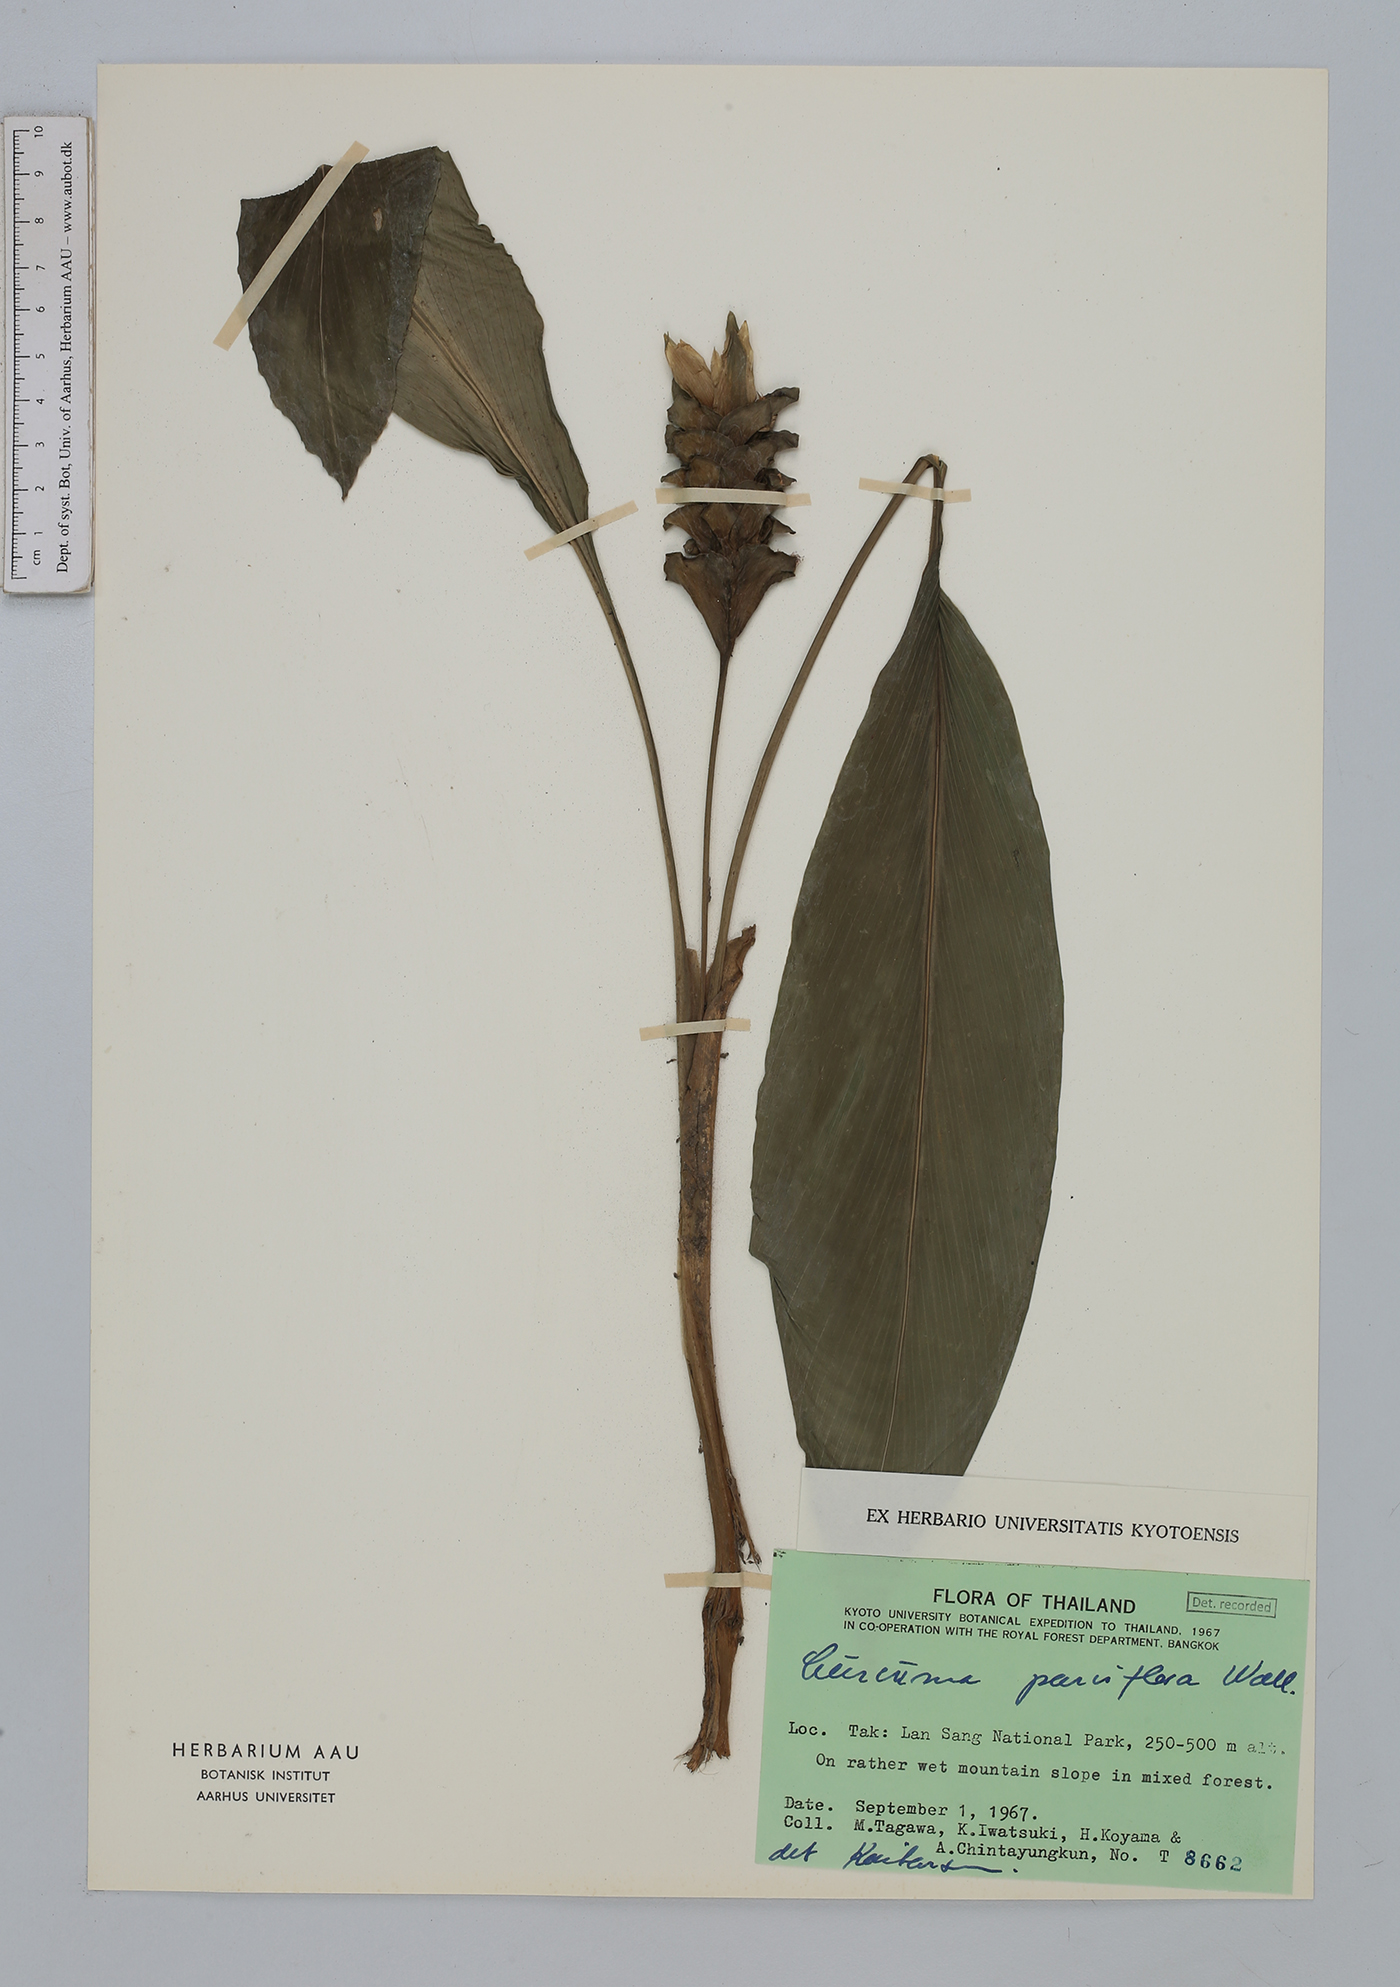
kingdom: Plantae
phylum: Tracheophyta
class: Liliopsida
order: Zingiberales
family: Zingiberaceae
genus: Curcuma
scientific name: Curcuma parviflora
